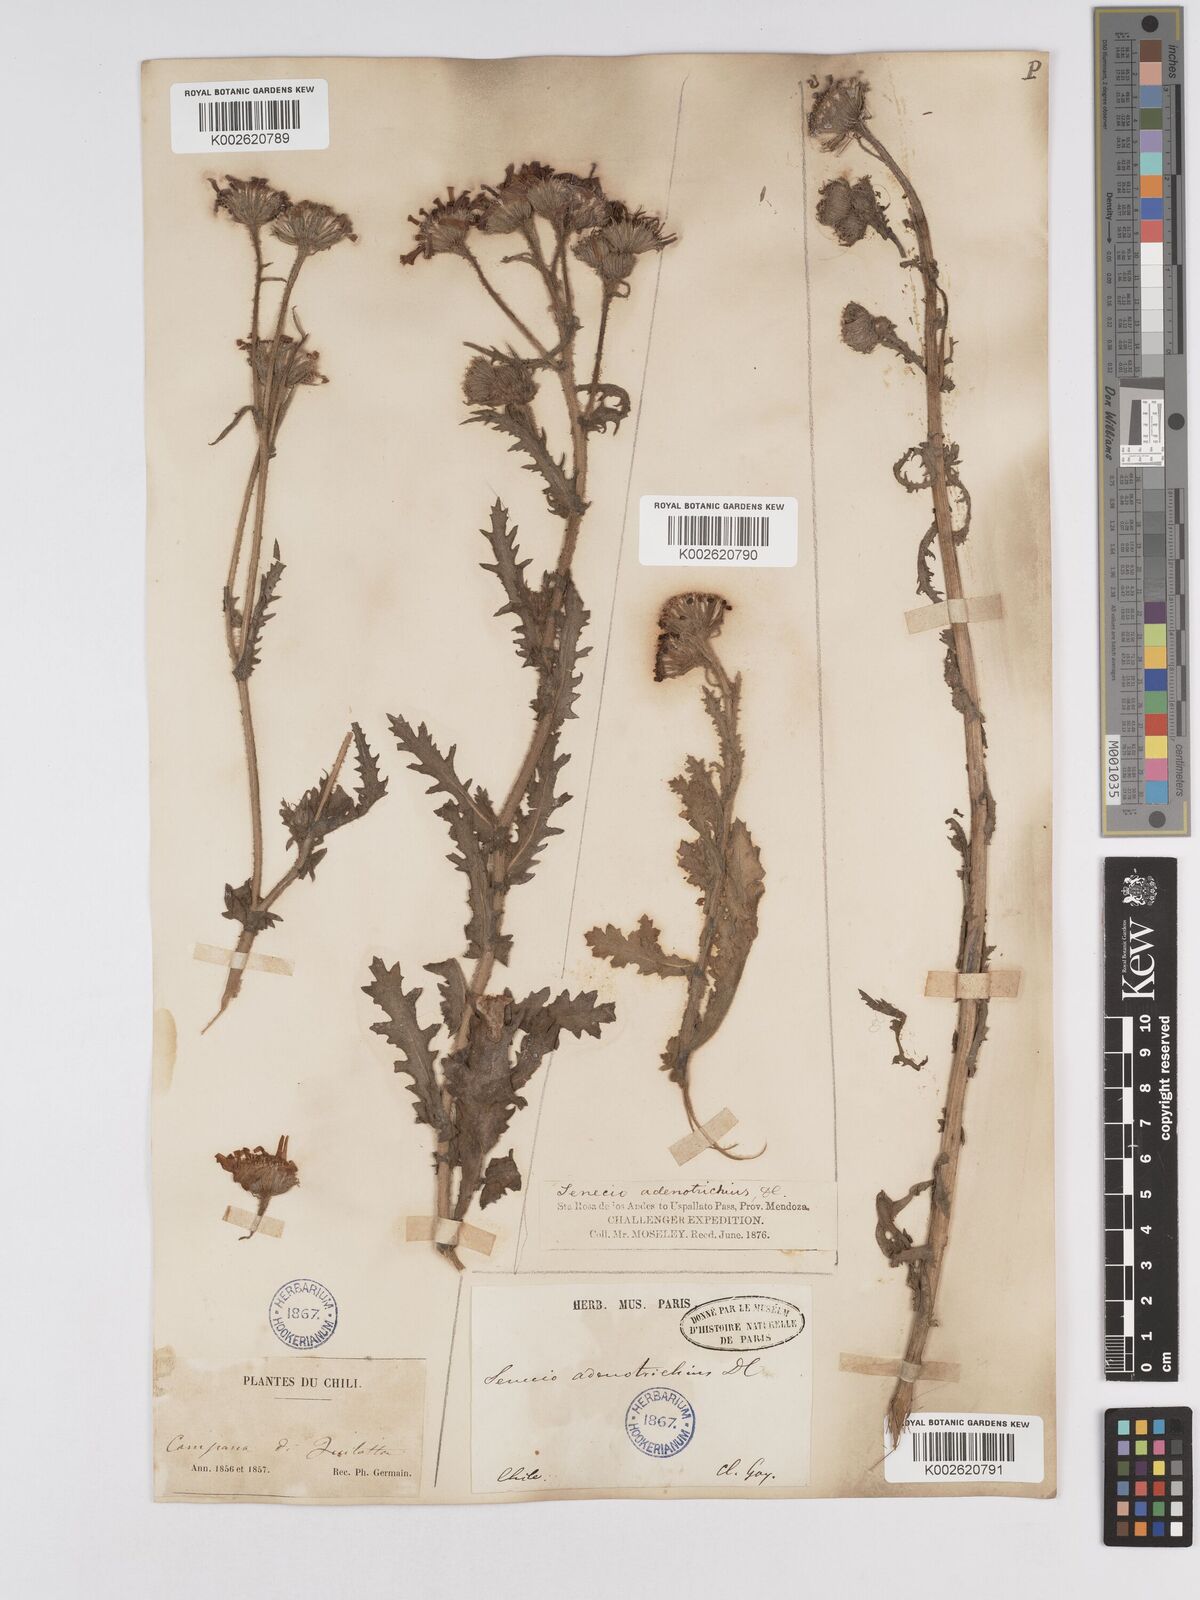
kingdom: Plantae
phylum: Tracheophyta
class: Magnoliopsida
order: Asterales
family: Asteraceae
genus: Senecio
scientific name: Senecio adenotrichius
